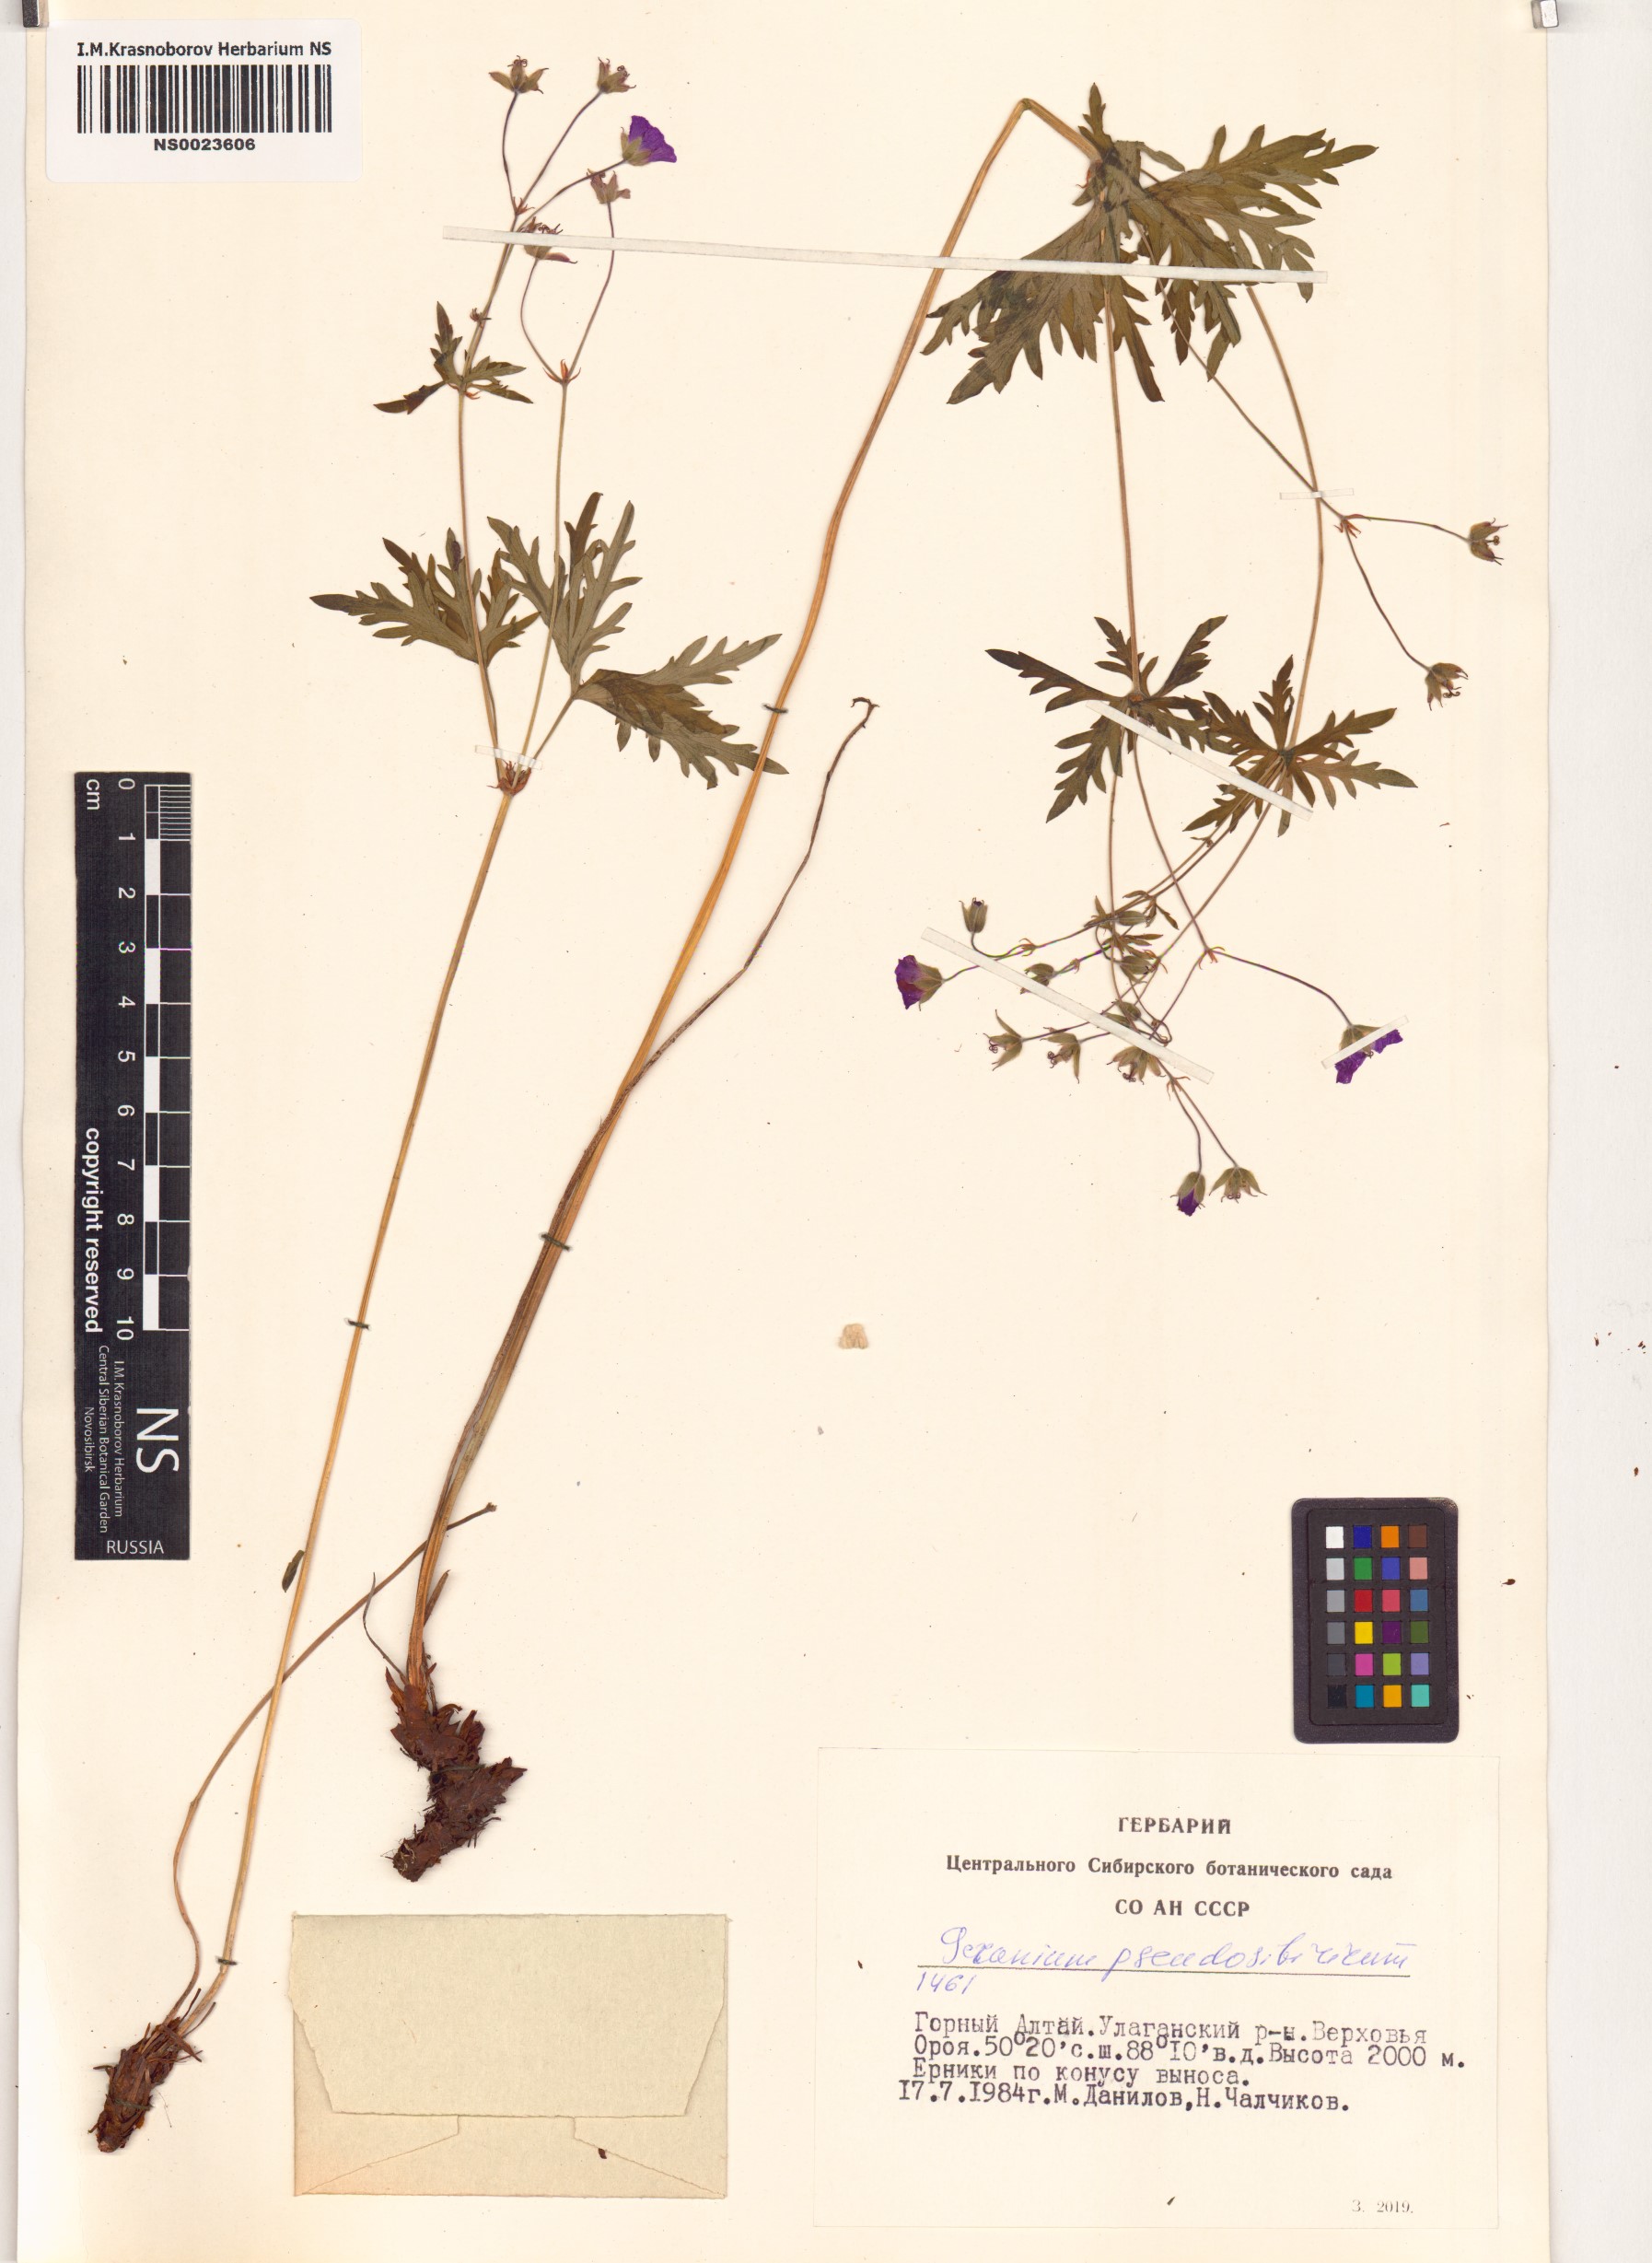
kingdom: Plantae
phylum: Tracheophyta
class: Magnoliopsida
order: Geraniales
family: Geraniaceae
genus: Geranium
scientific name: Geranium pseudosibiricum
